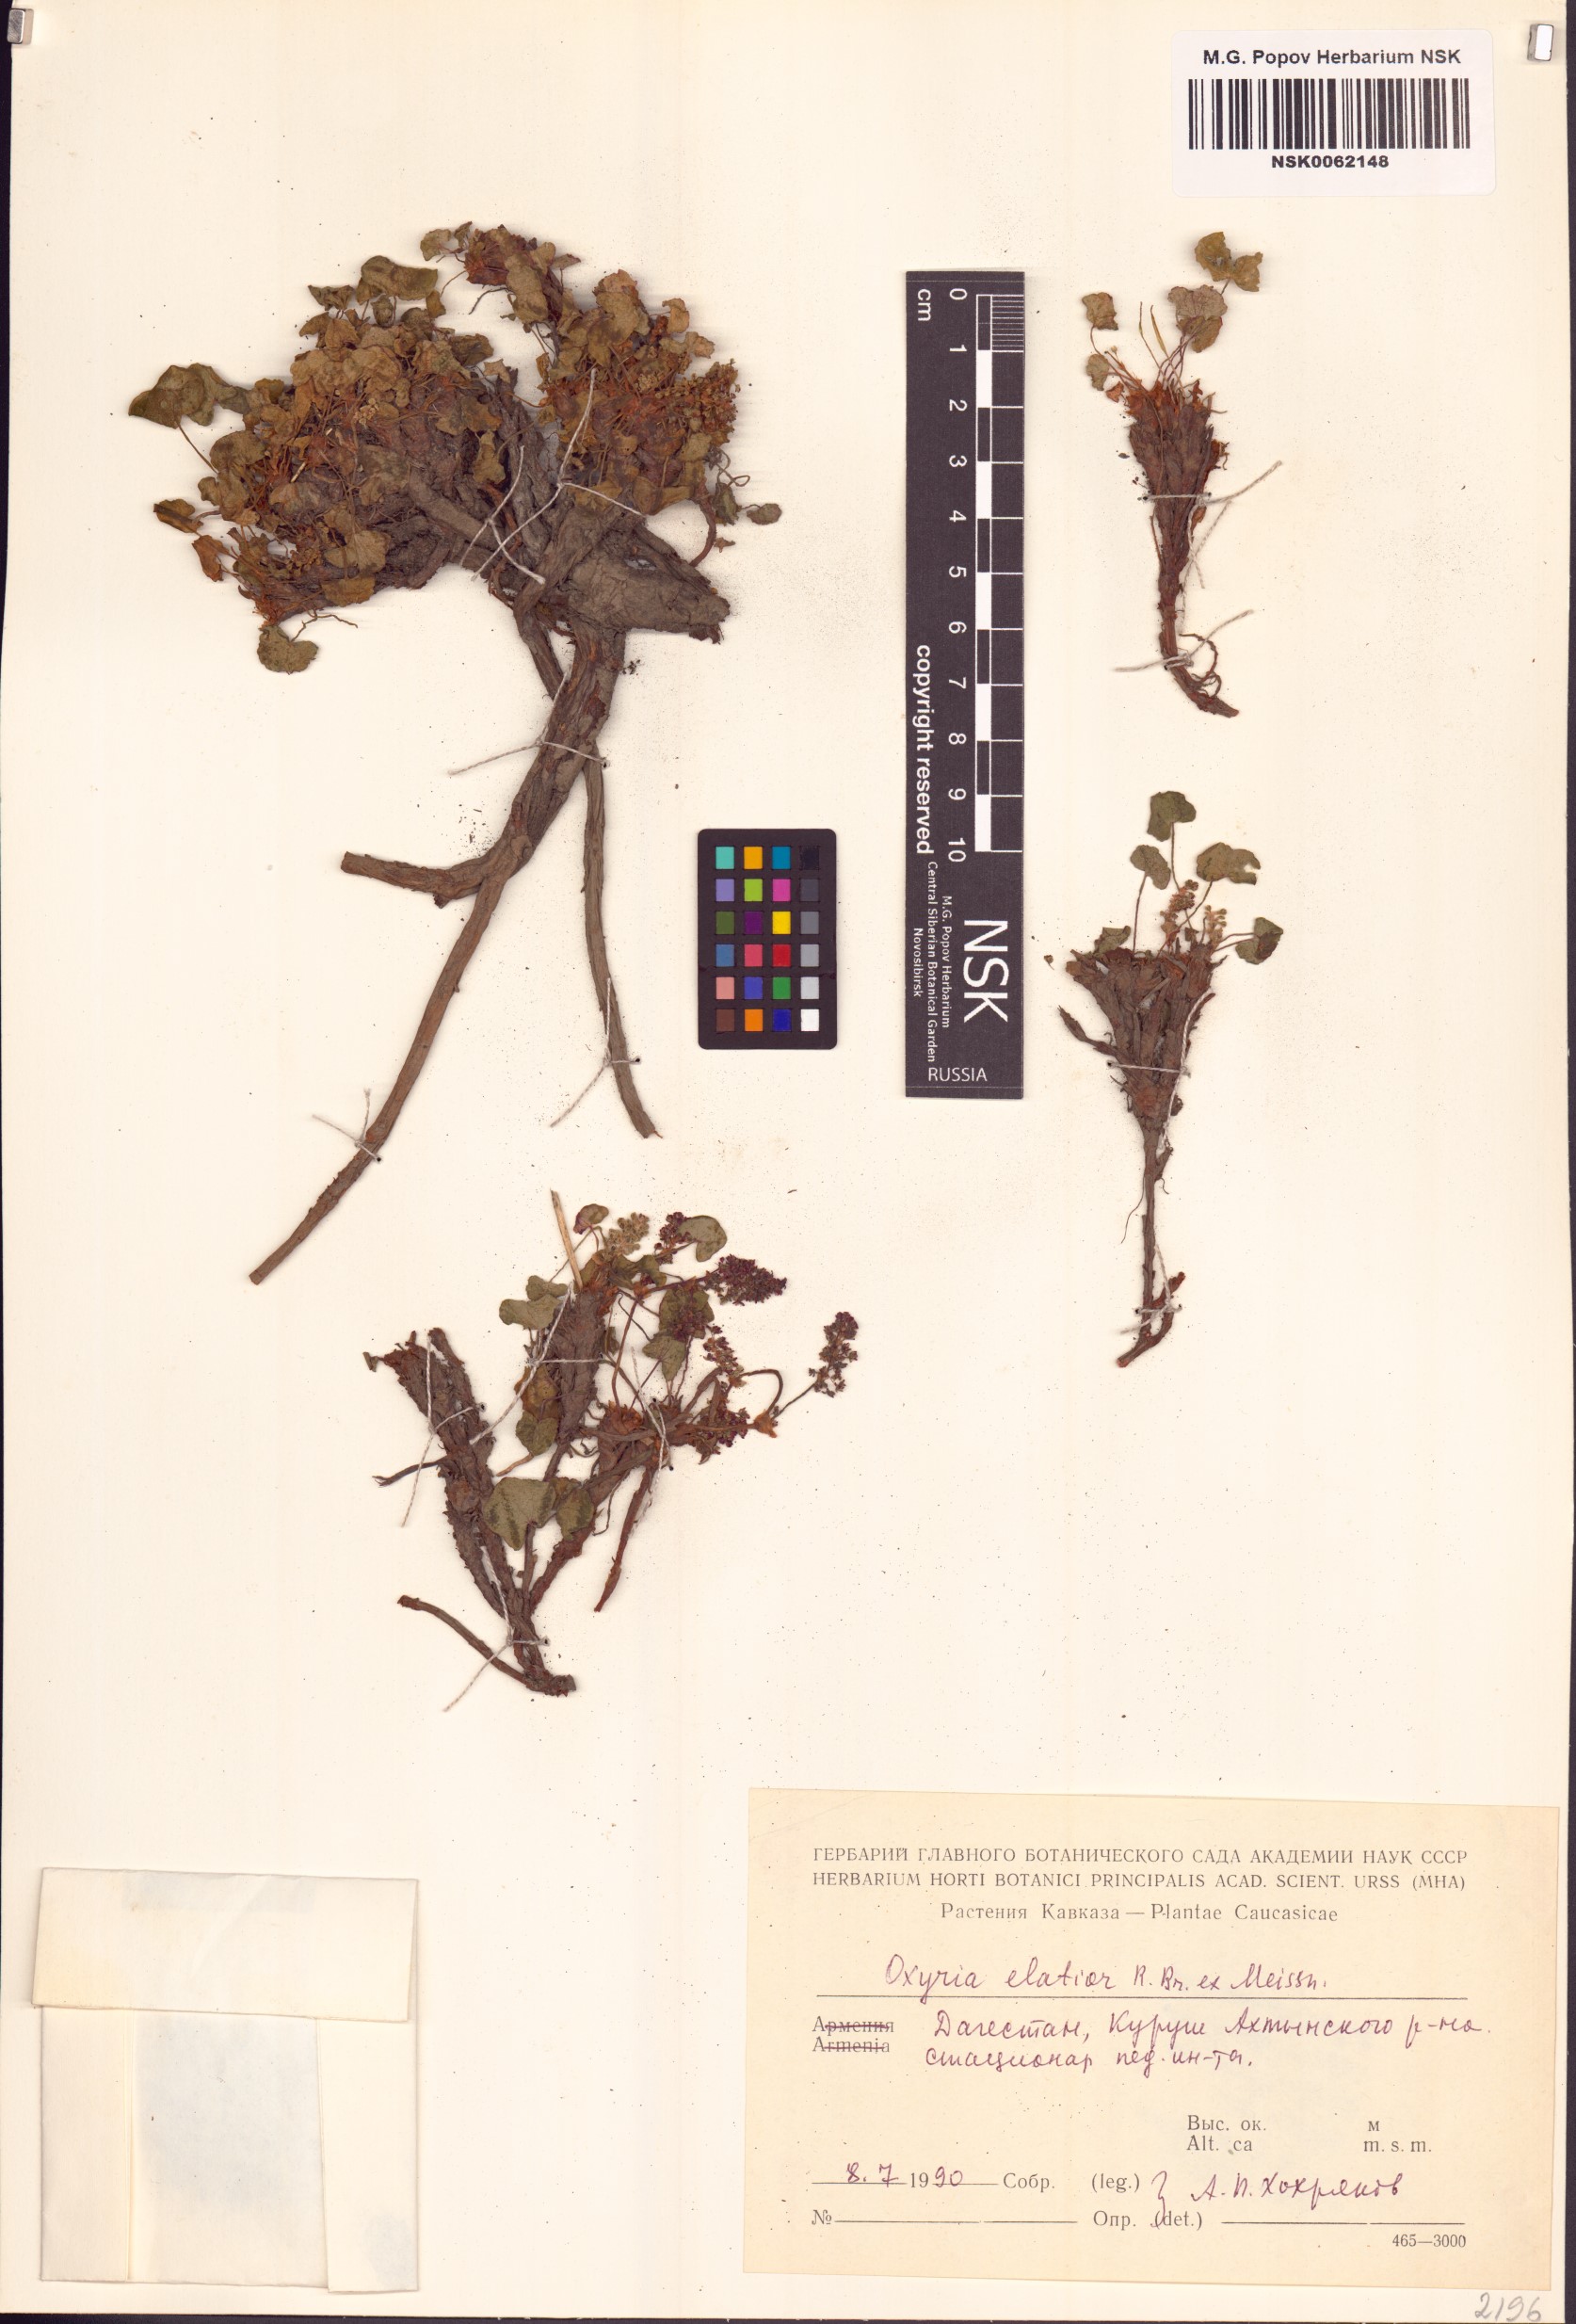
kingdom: Plantae
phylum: Tracheophyta
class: Magnoliopsida
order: Caryophyllales
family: Polygonaceae
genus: Oxyria
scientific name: Oxyria digyna
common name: Alpine mountain-sorrel
